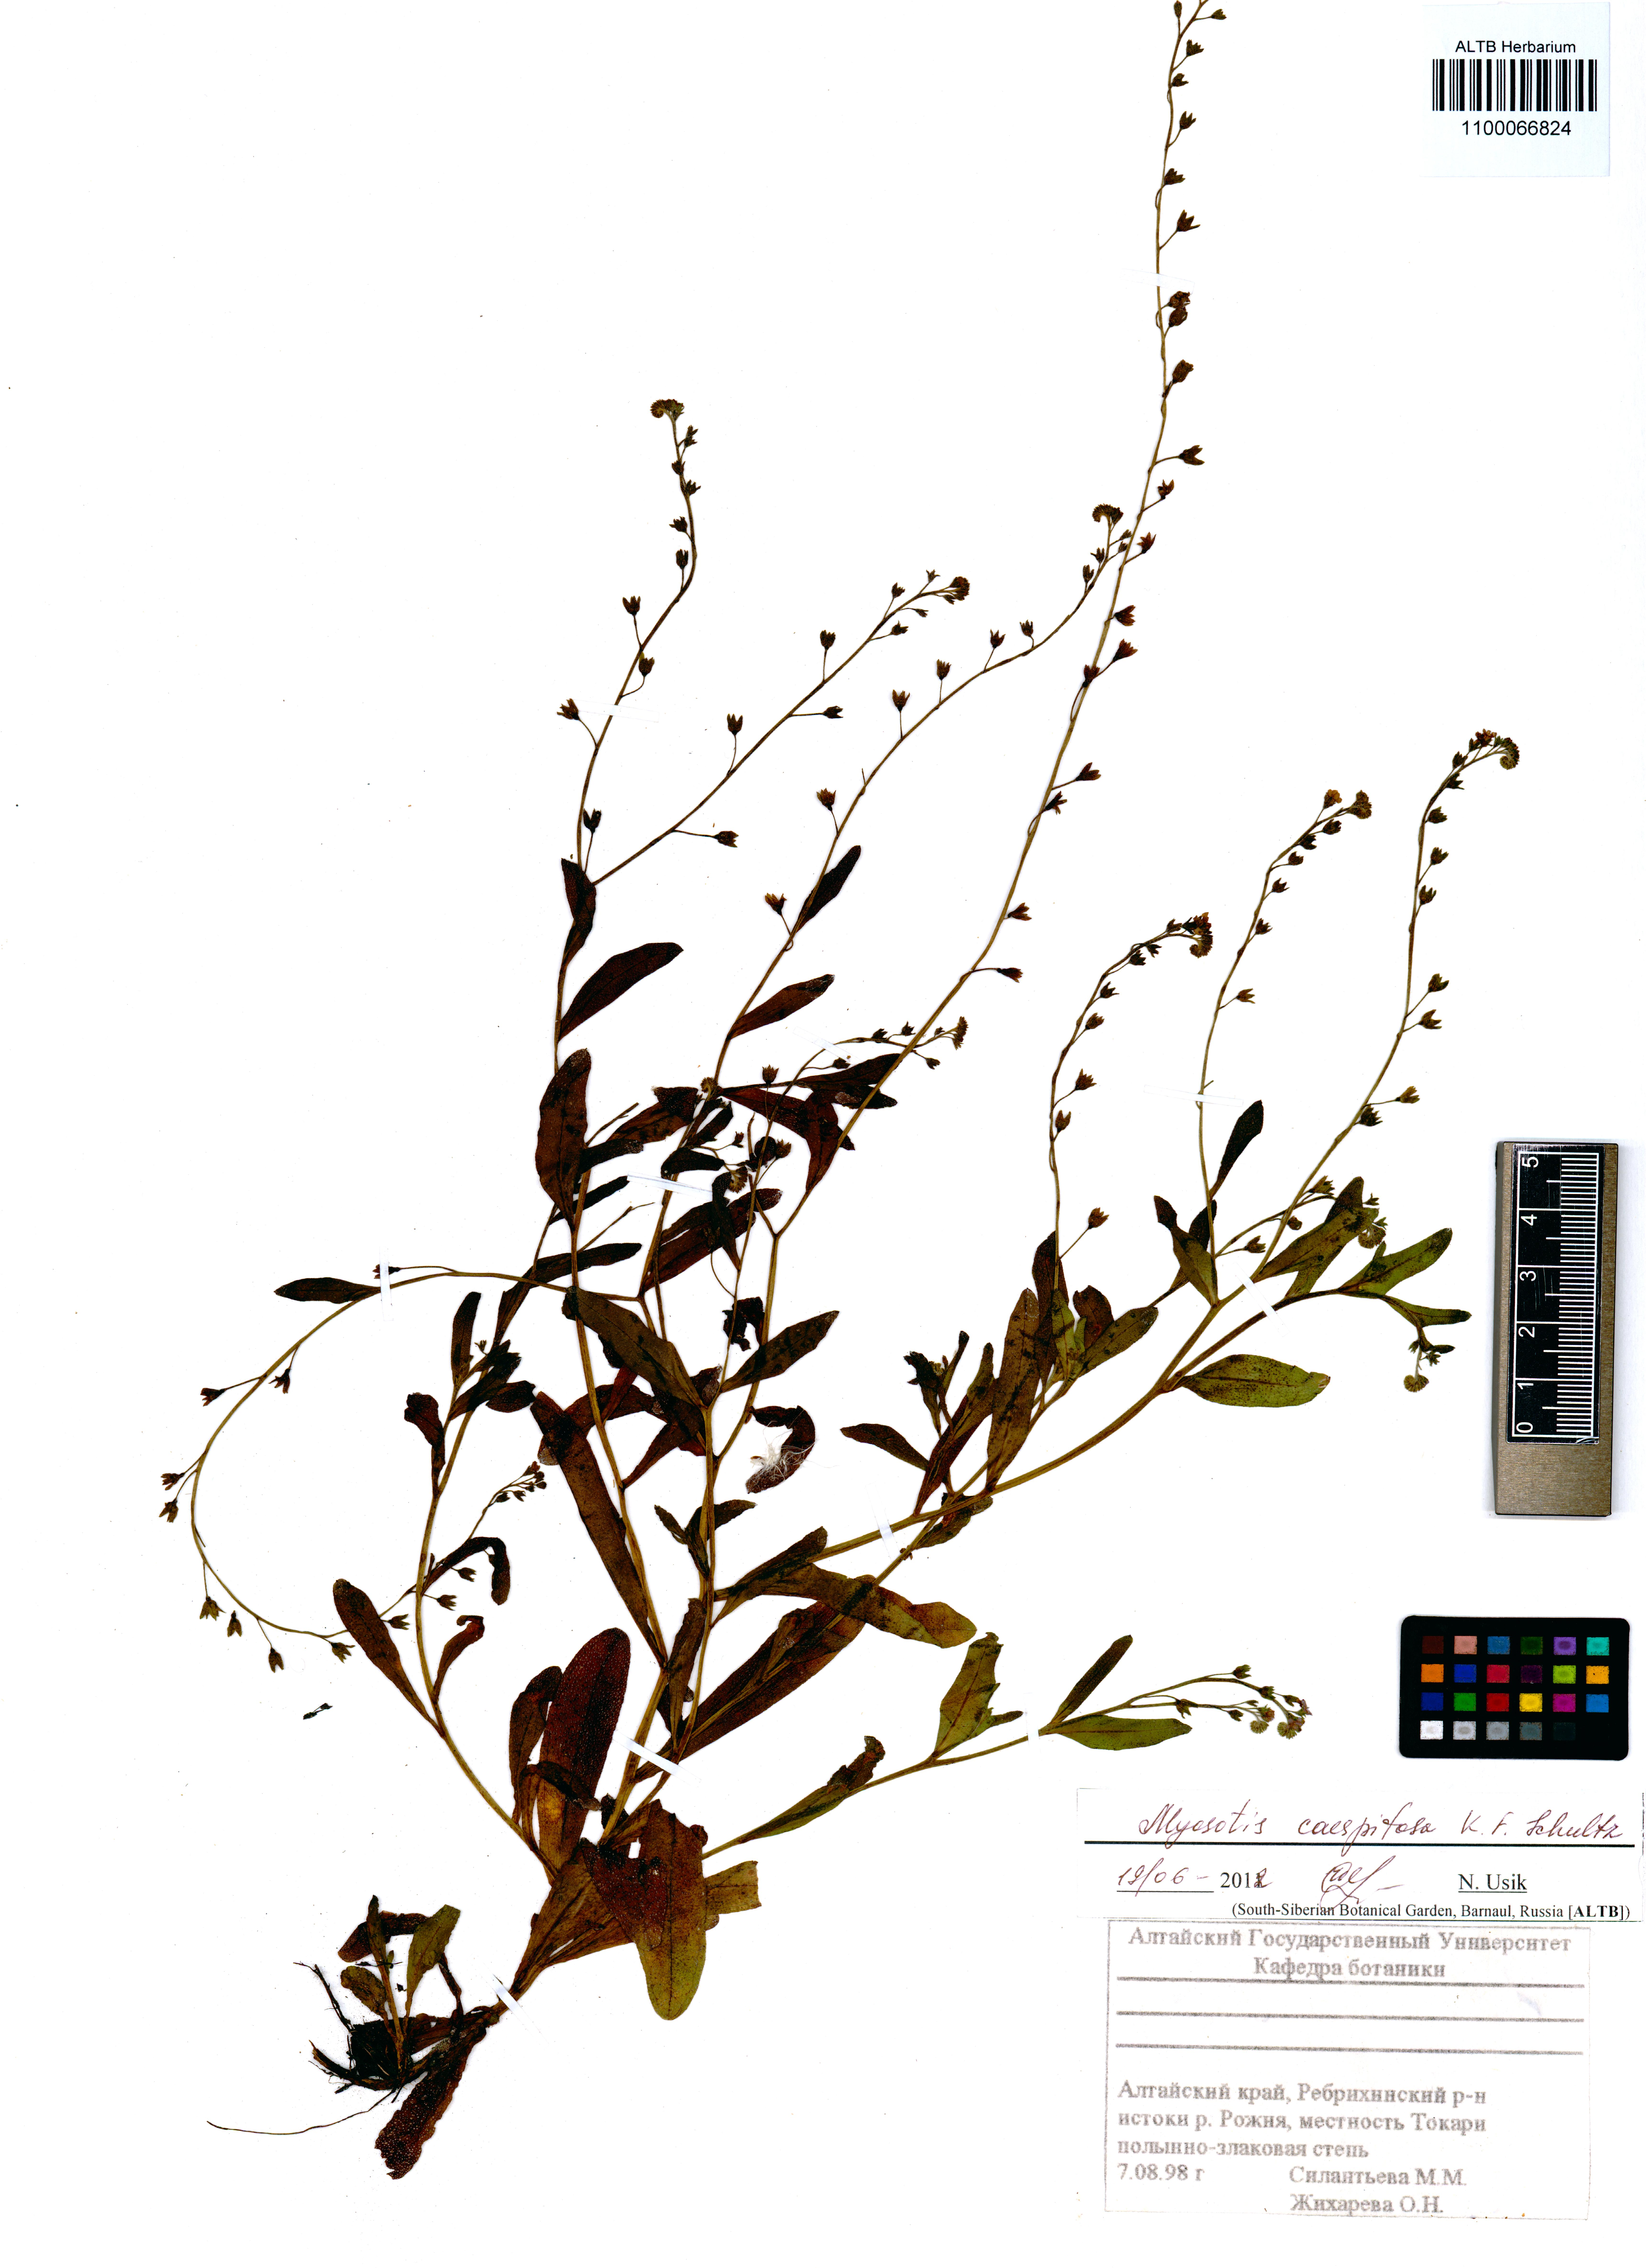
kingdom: Plantae
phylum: Tracheophyta
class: Magnoliopsida
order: Boraginales
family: Boraginaceae
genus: Myosotis
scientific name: Myosotis laxa
